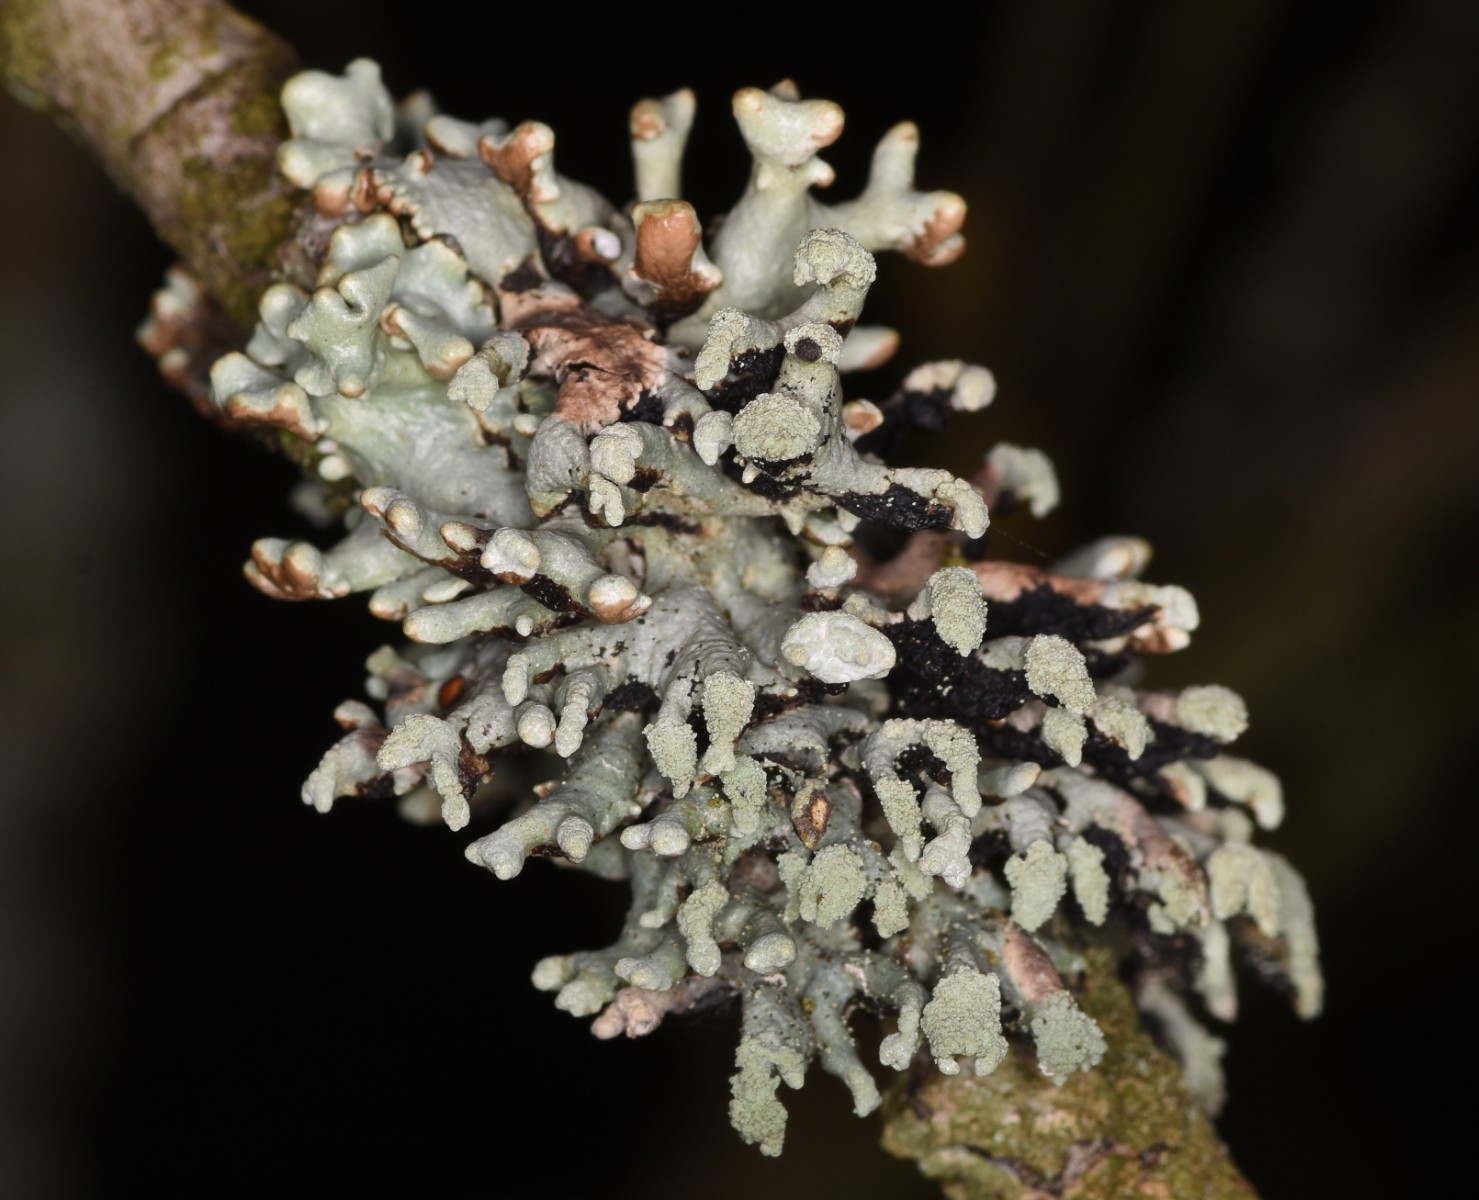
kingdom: Fungi
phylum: Ascomycota
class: Lecanoromycetes
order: Lecanorales
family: Parmeliaceae
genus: Hypogymnia
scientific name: Hypogymnia tubulosa
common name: finger-kvistlav
